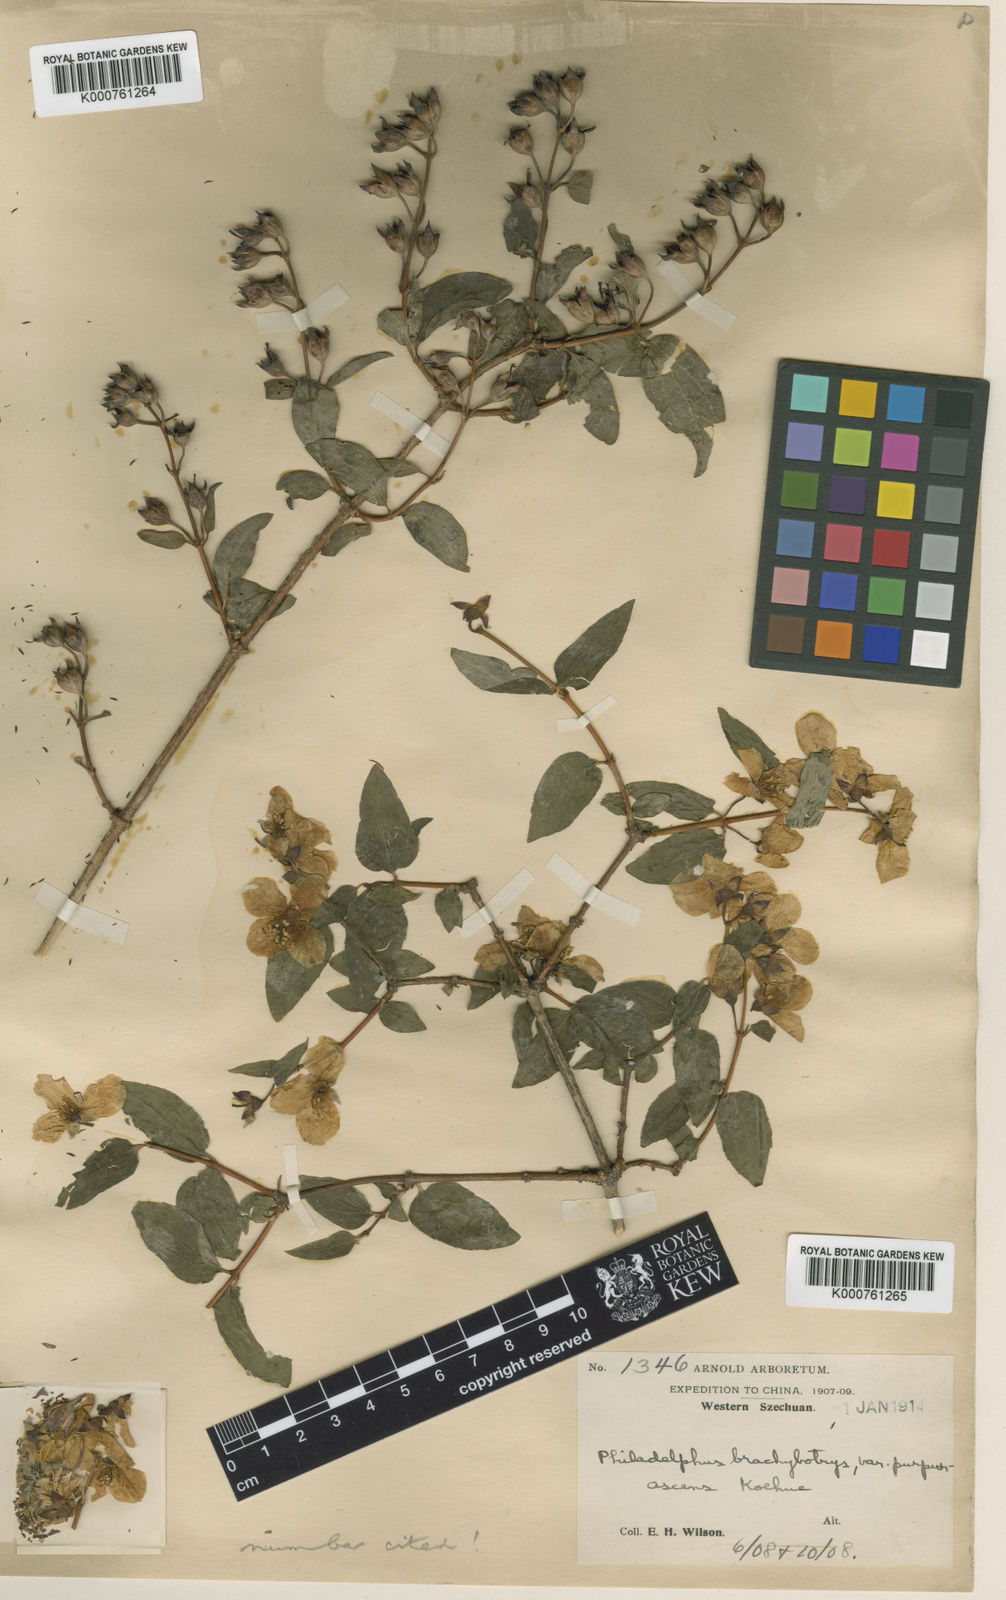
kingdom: Plantae
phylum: Tracheophyta
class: Magnoliopsida
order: Cornales
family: Hydrangeaceae
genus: Philadelphus
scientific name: Philadelphus purpurascens
